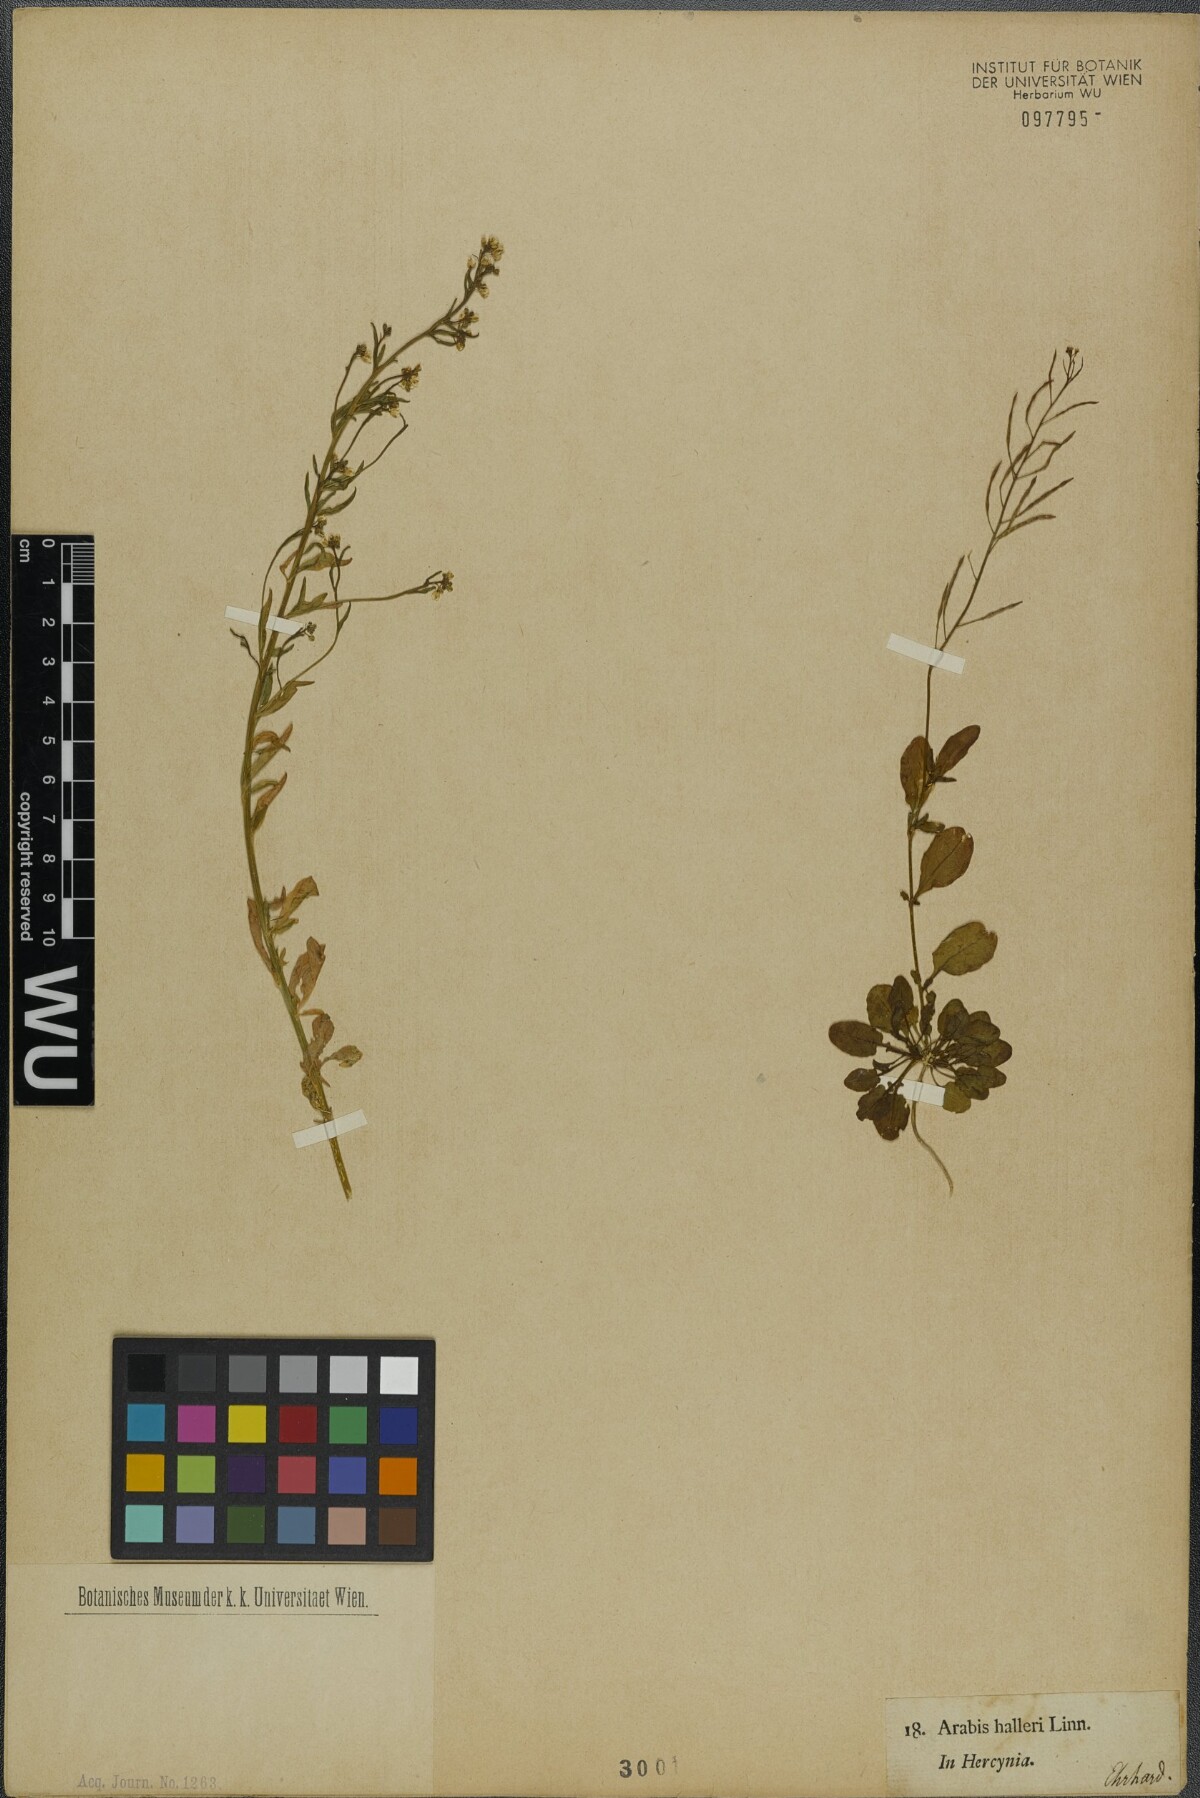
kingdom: Plantae
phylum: Tracheophyta
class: Magnoliopsida
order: Brassicales
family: Brassicaceae
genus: Arabidopsis
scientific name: Arabidopsis halleri
